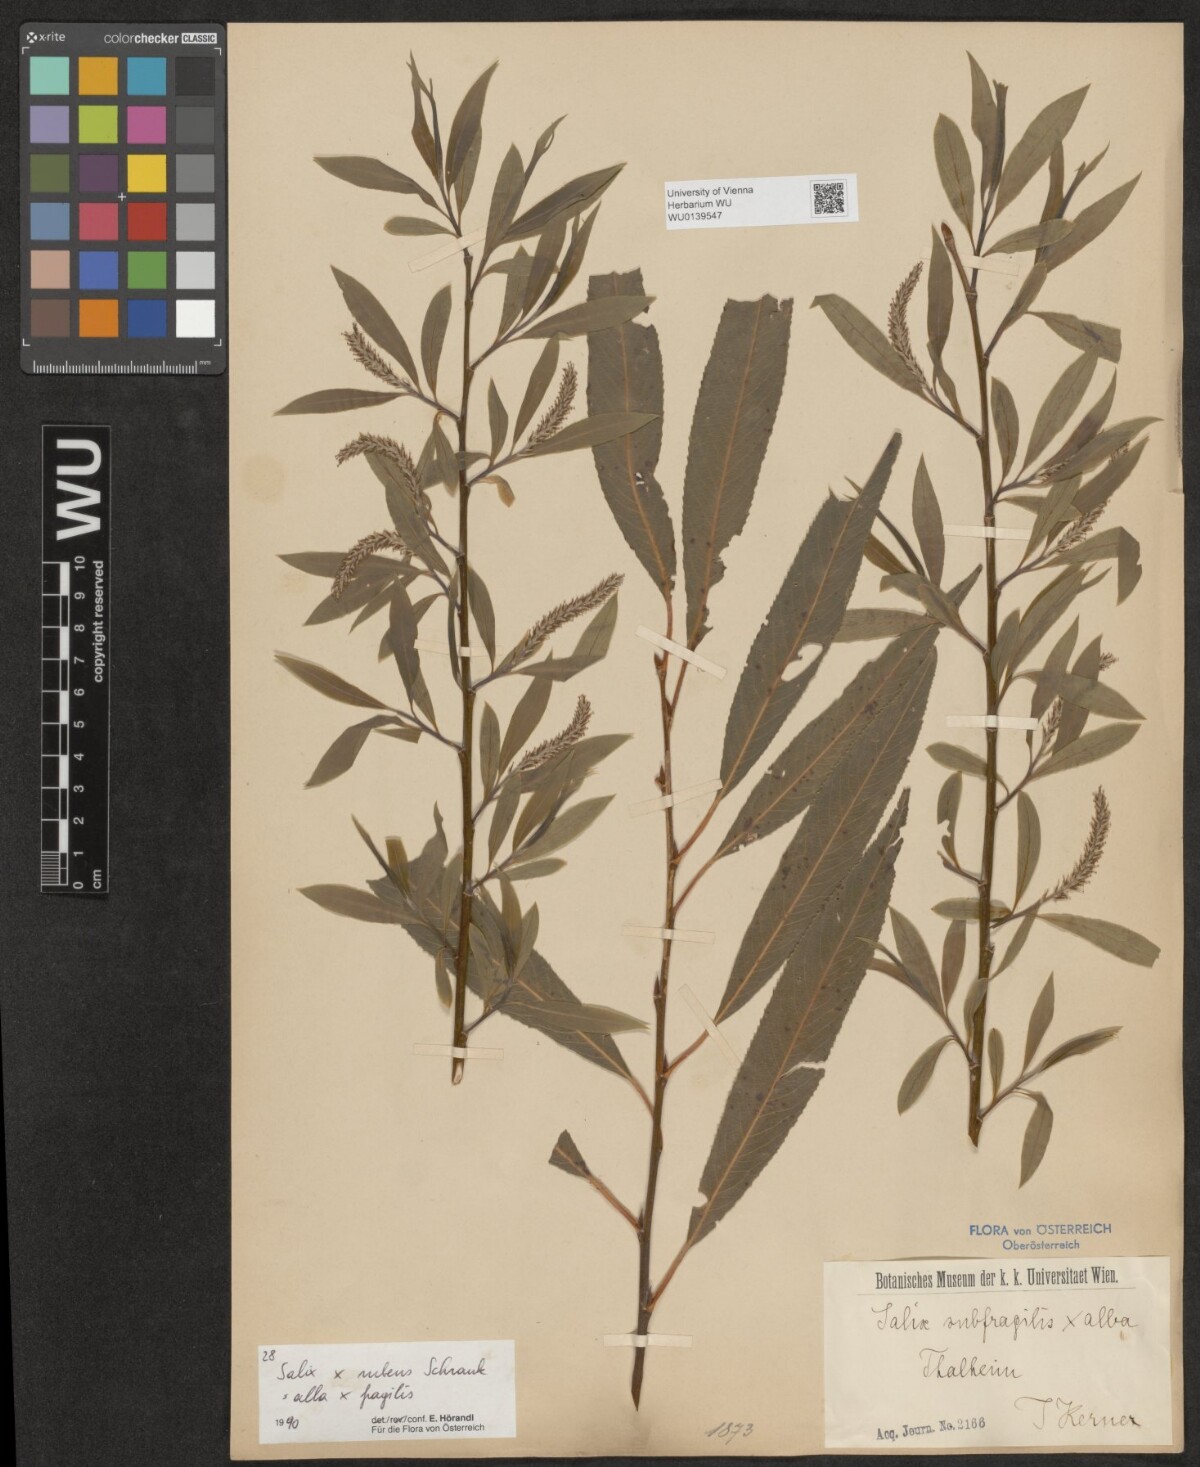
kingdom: Plantae
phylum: Tracheophyta
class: Magnoliopsida
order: Malpighiales
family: Salicaceae
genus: Salix
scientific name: Salix rubens
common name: Hybrid crack willow
